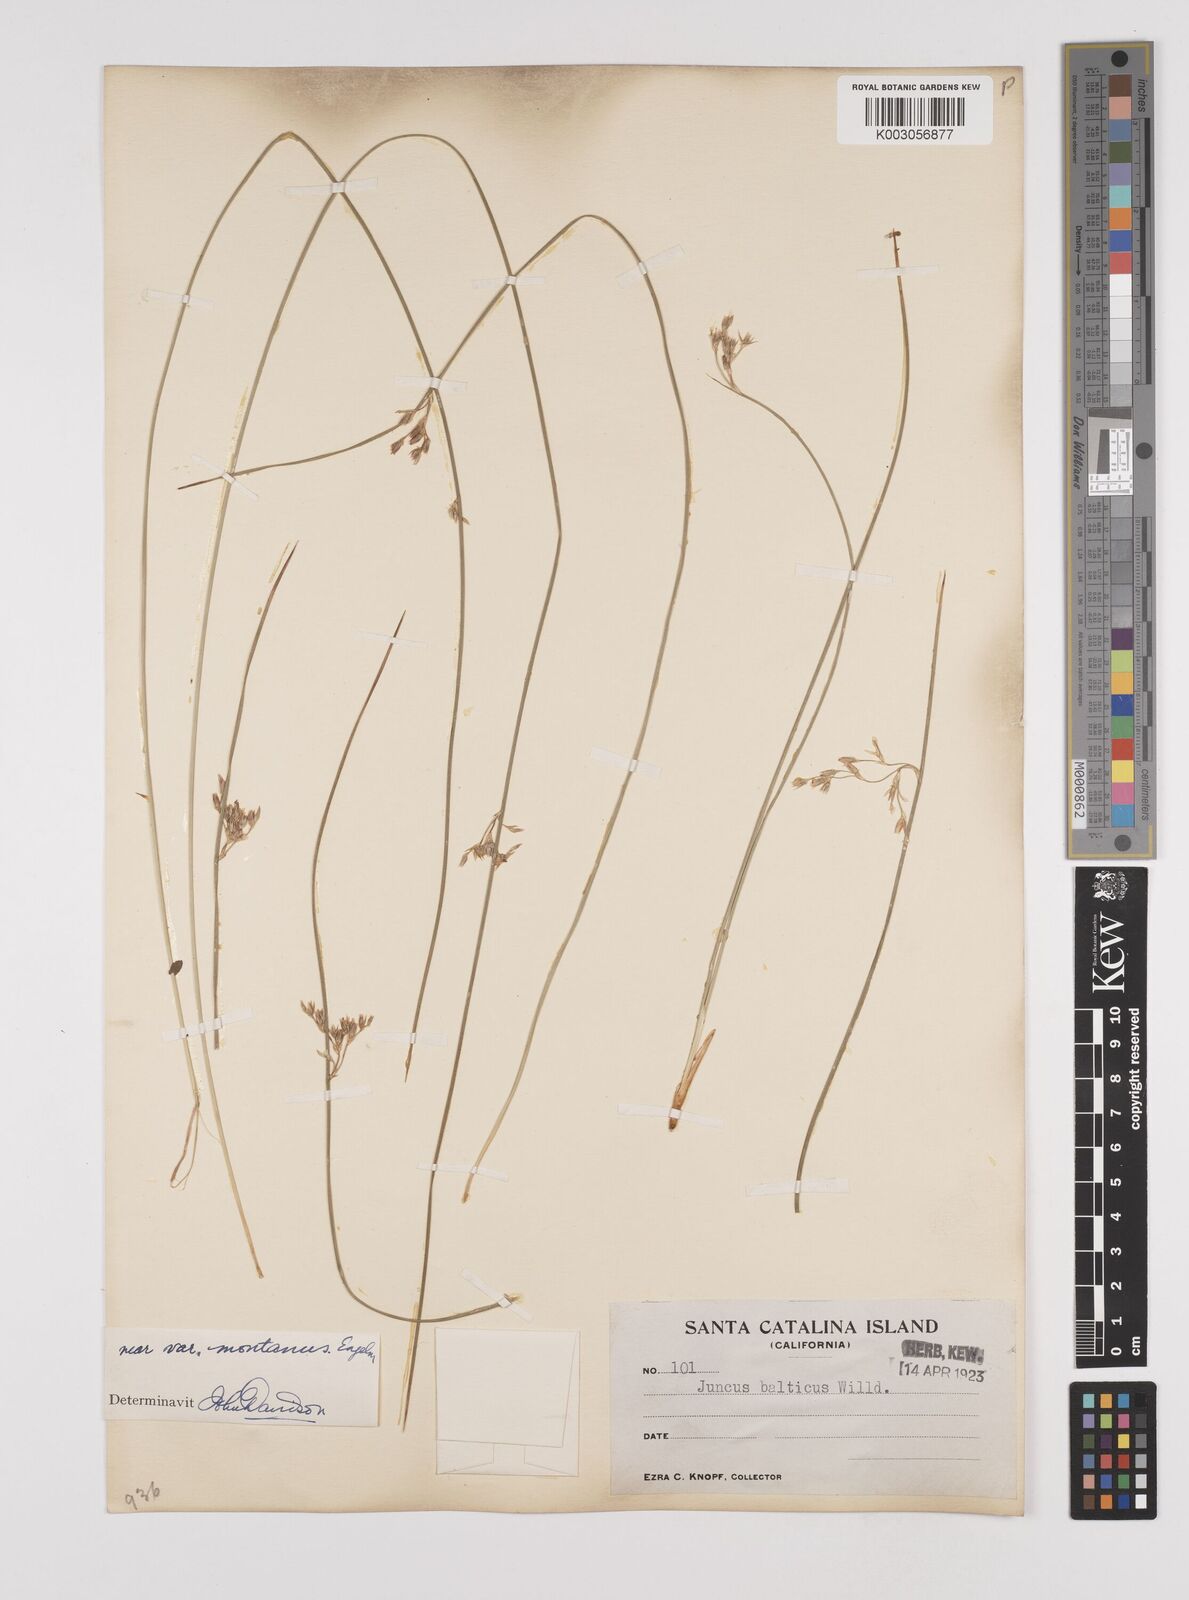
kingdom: Plantae
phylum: Tracheophyta
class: Liliopsida
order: Poales
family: Juncaceae
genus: Juncus
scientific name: Juncus
